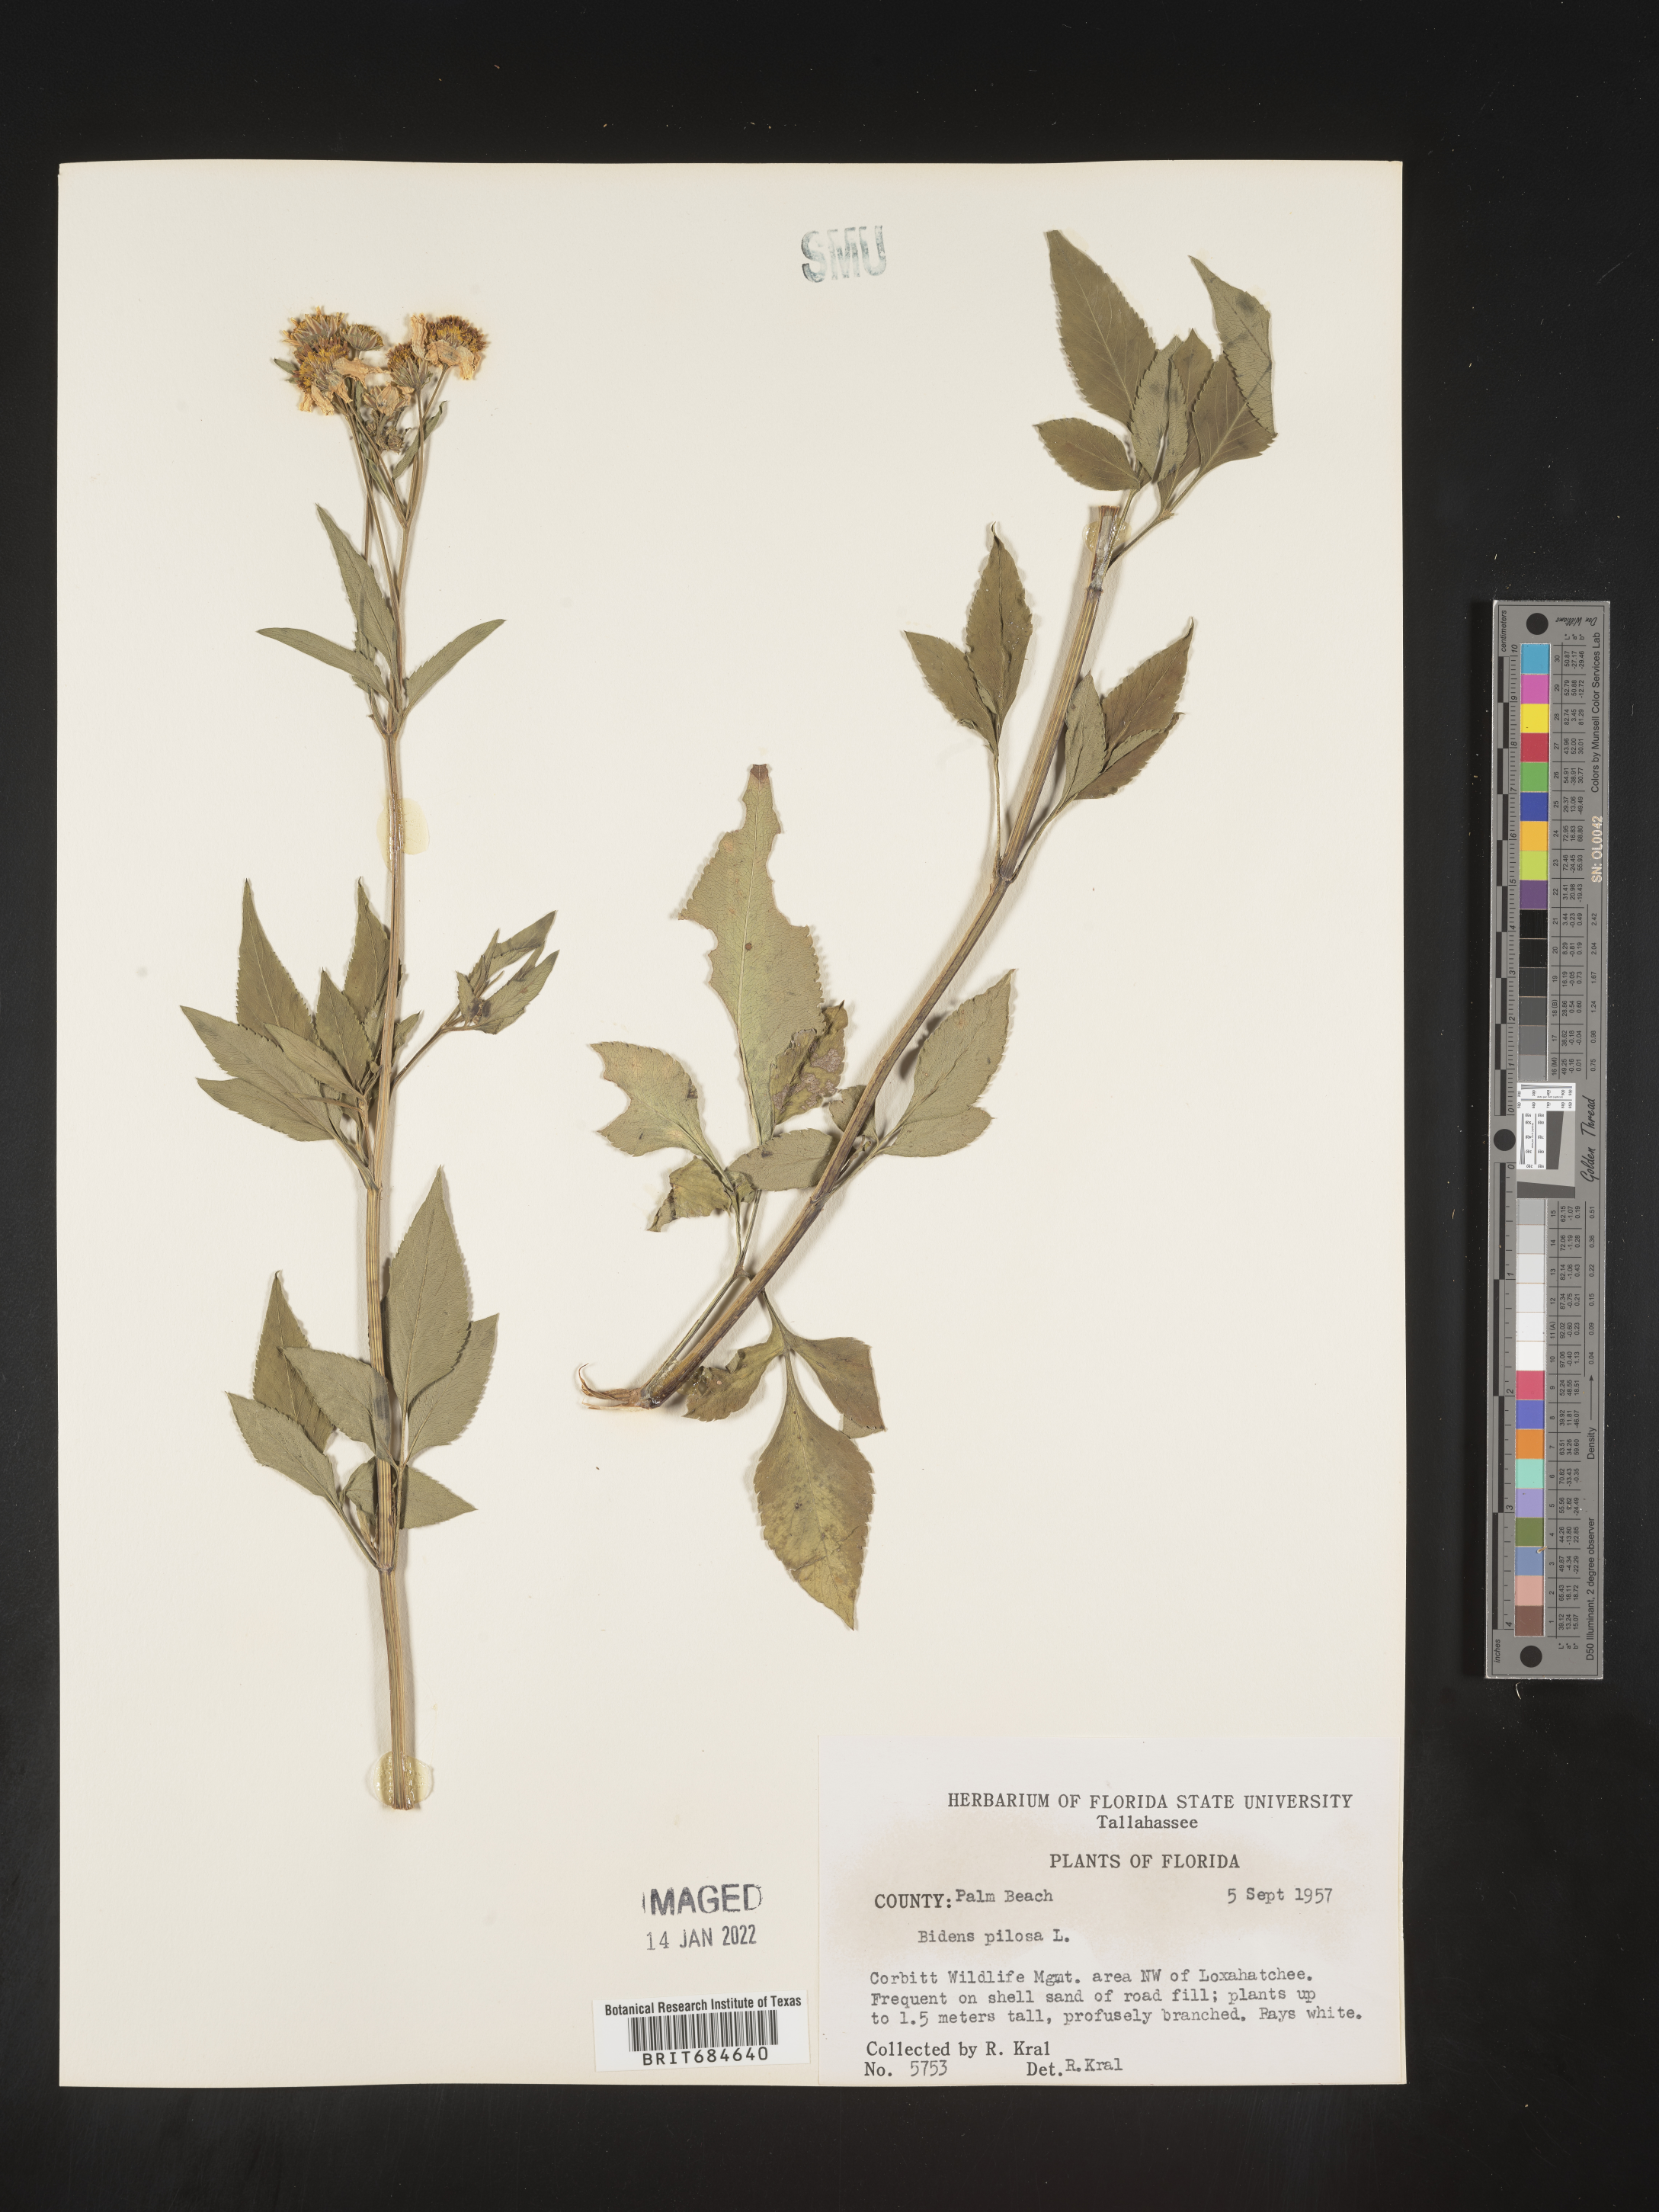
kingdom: Plantae
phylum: Tracheophyta
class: Magnoliopsida
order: Asterales
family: Asteraceae
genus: Bidens
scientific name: Bidens pilosa
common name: Black-jack
